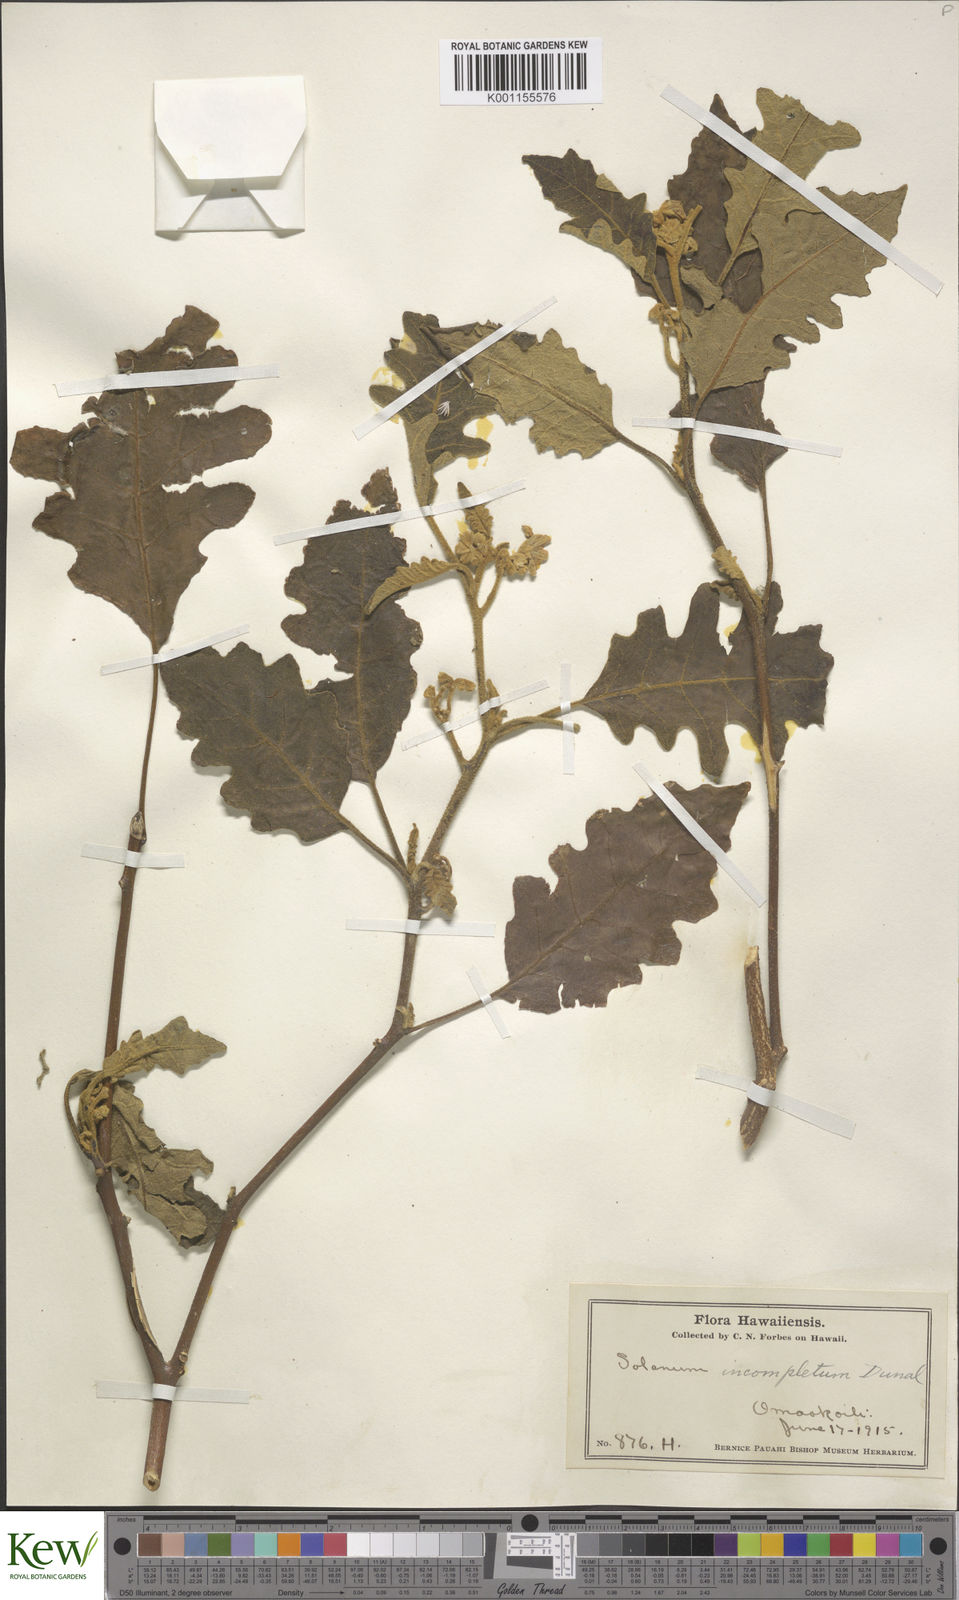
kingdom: Plantae
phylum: Tracheophyta
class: Magnoliopsida
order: Solanales
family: Solanaceae
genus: Solanum
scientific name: Solanum incompletum
